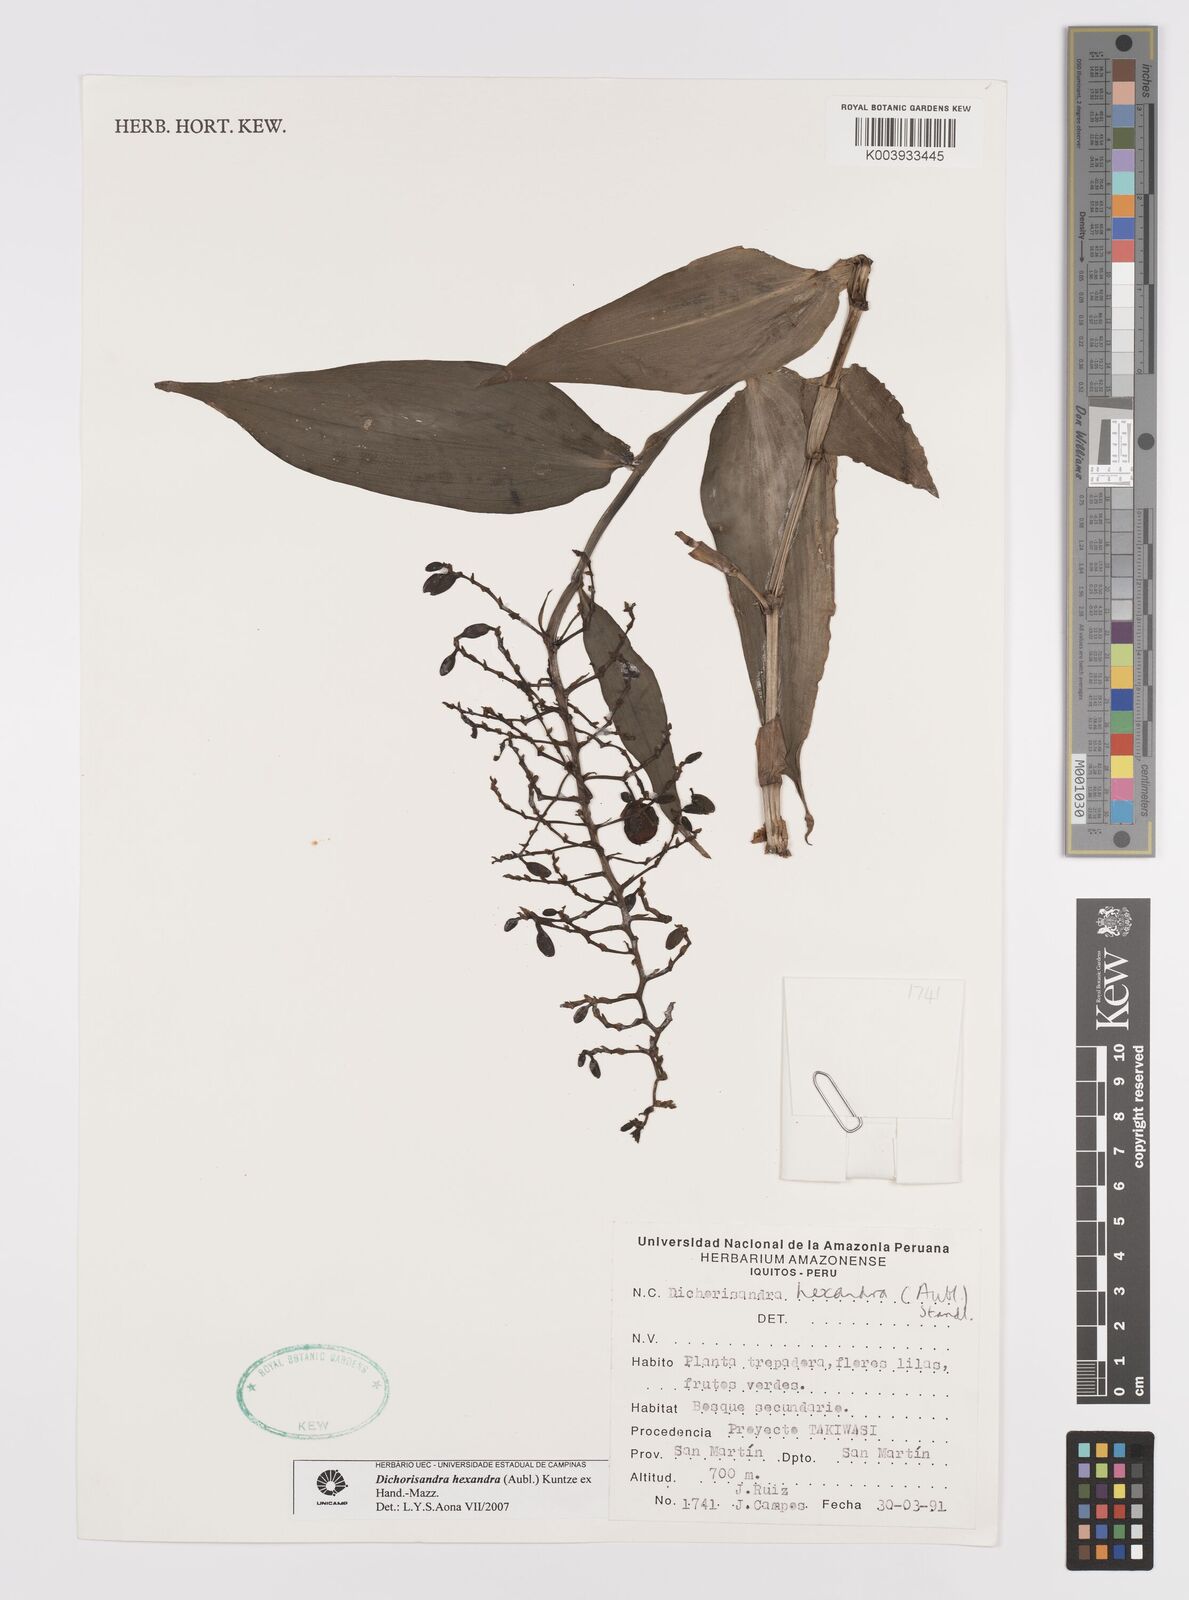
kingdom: Plantae
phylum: Tracheophyta
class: Liliopsida
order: Commelinales
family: Commelinaceae
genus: Dichorisandra
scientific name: Dichorisandra hexandra
